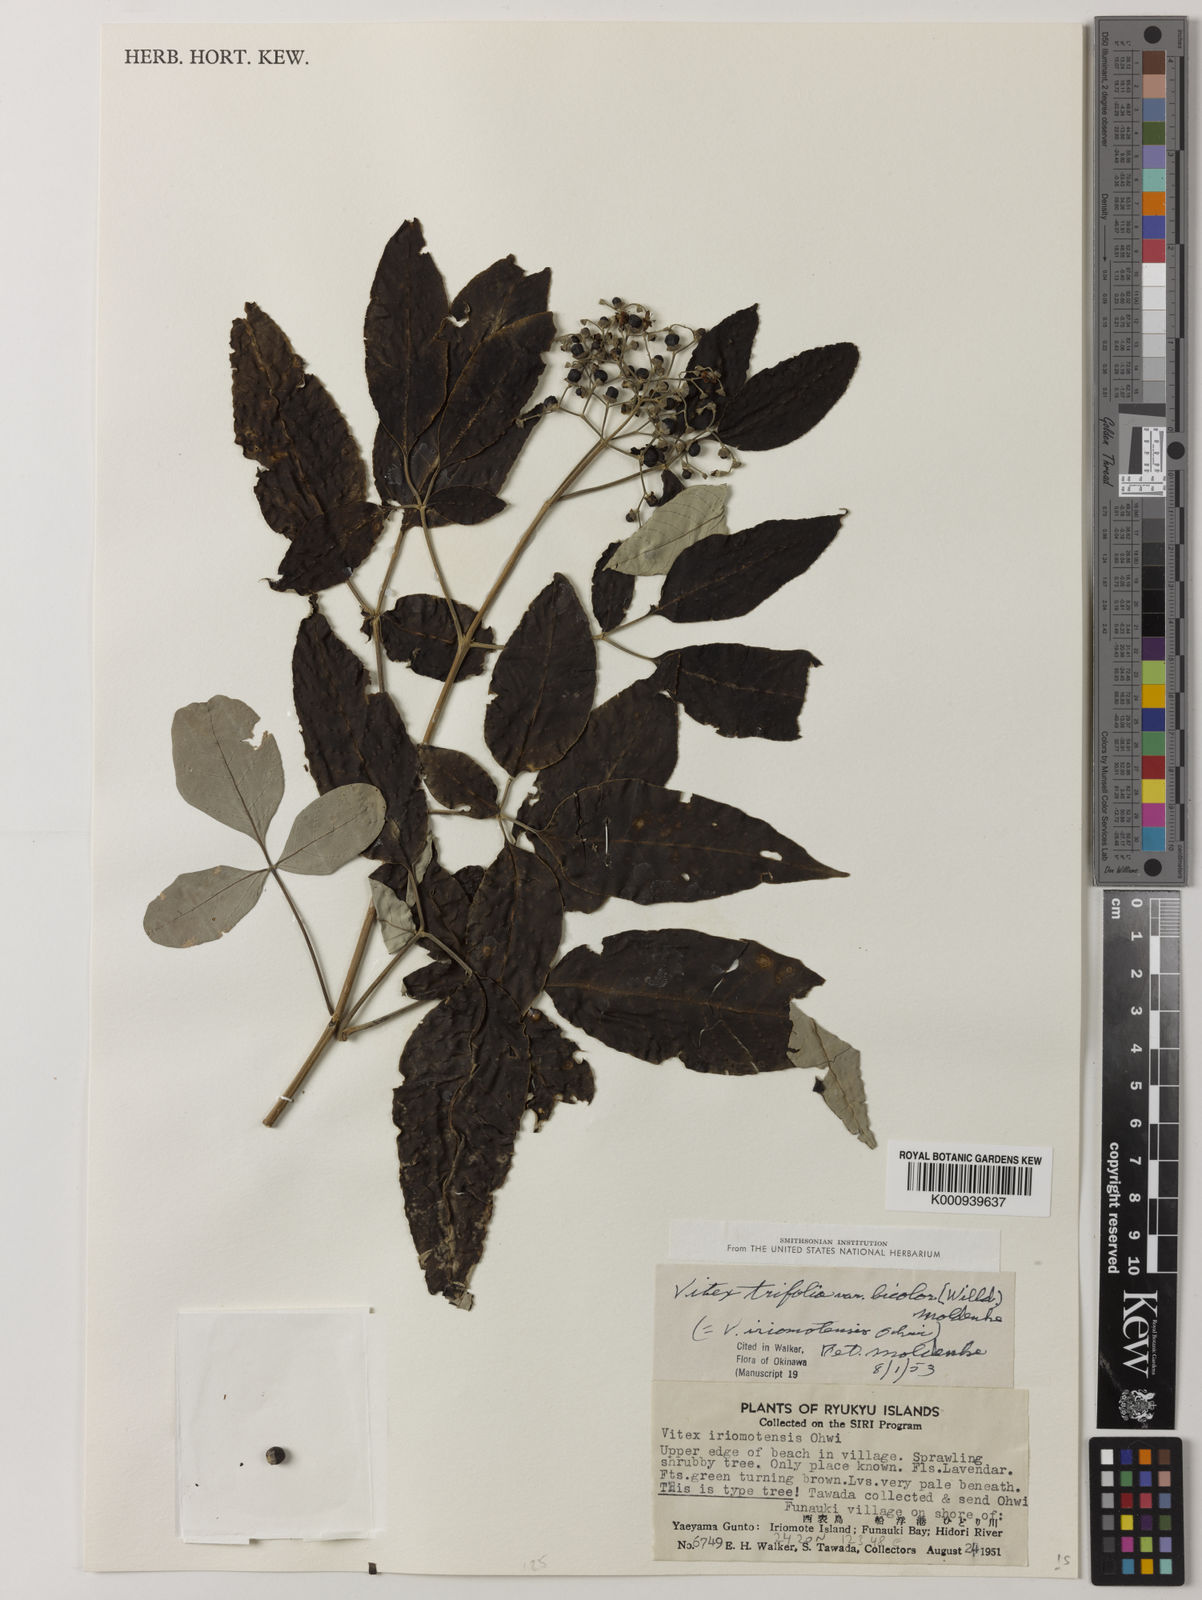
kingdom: Plantae
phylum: Tracheophyta
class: Magnoliopsida
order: Lamiales
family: Lamiaceae
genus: Vitex
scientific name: Vitex bicolor
